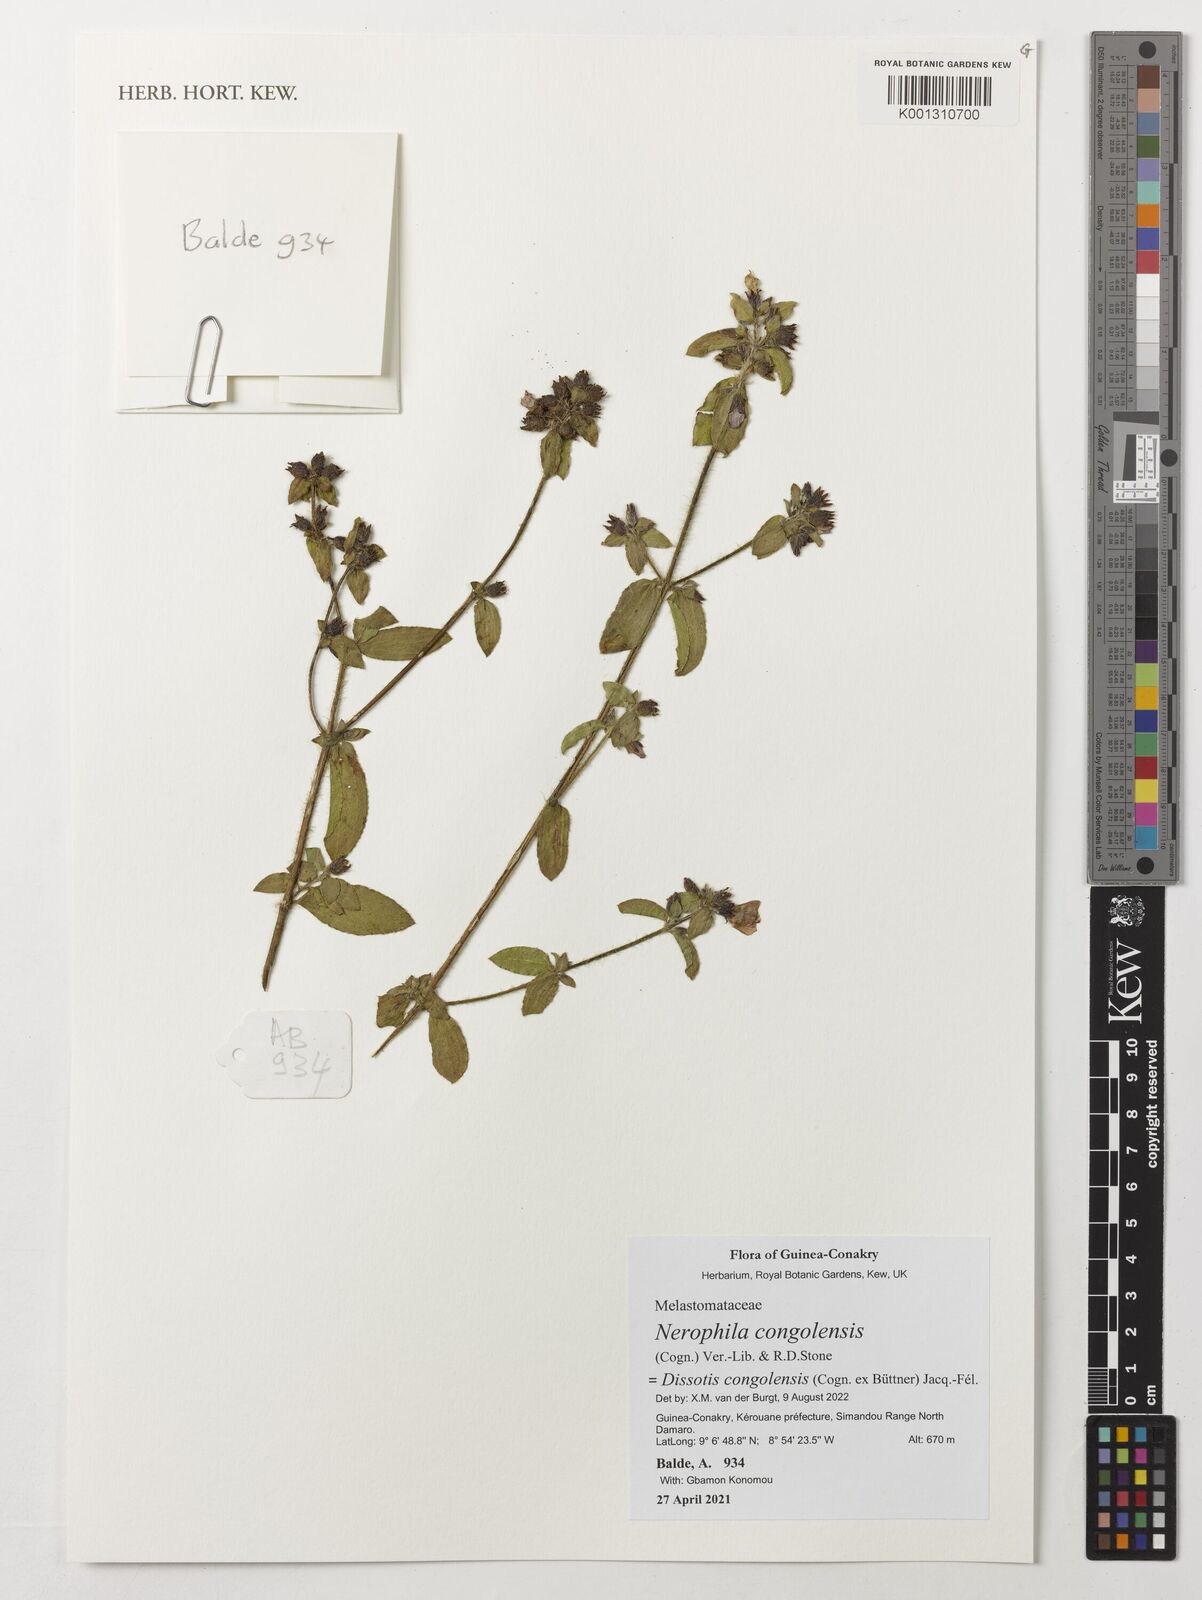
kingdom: Plantae
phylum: Tracheophyta
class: Magnoliopsida
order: Myrtales
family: Melastomataceae
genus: Nerophila
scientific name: Nerophila congolensis
